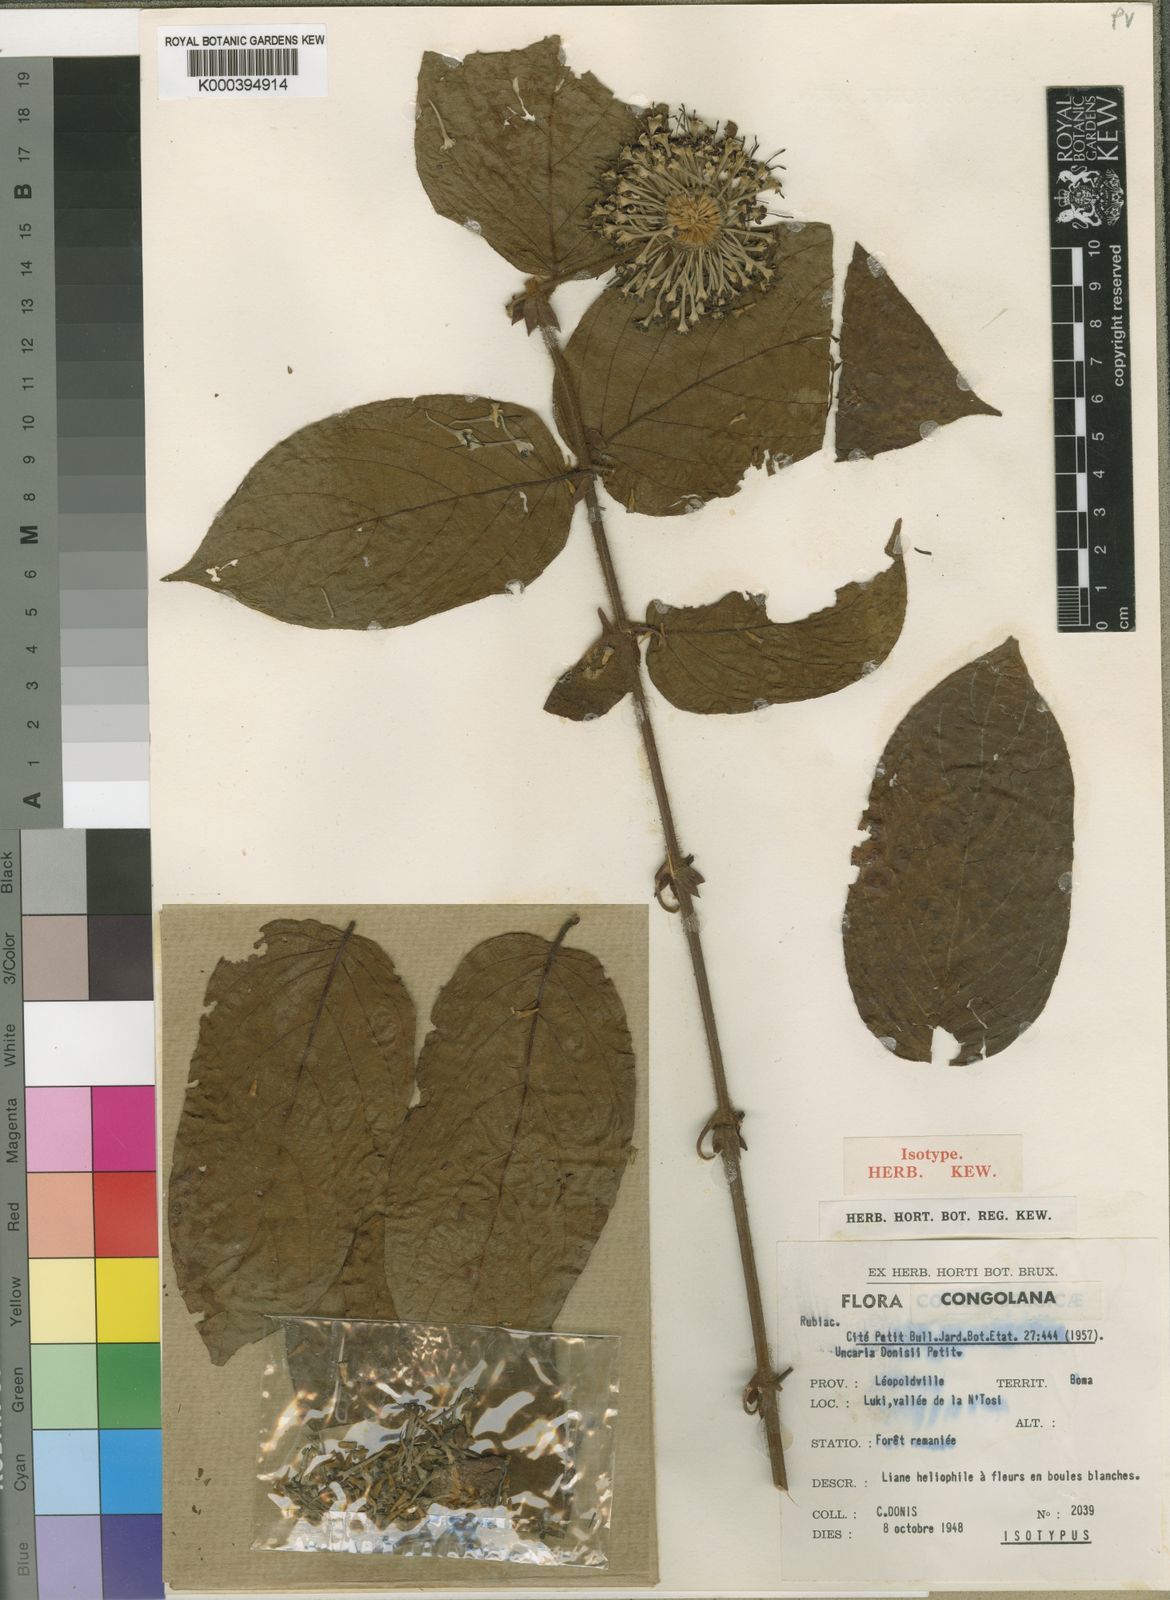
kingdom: Plantae
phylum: Tracheophyta
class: Magnoliopsida
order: Gentianales
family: Rubiaceae
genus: Uncaria
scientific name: Uncaria donisii
